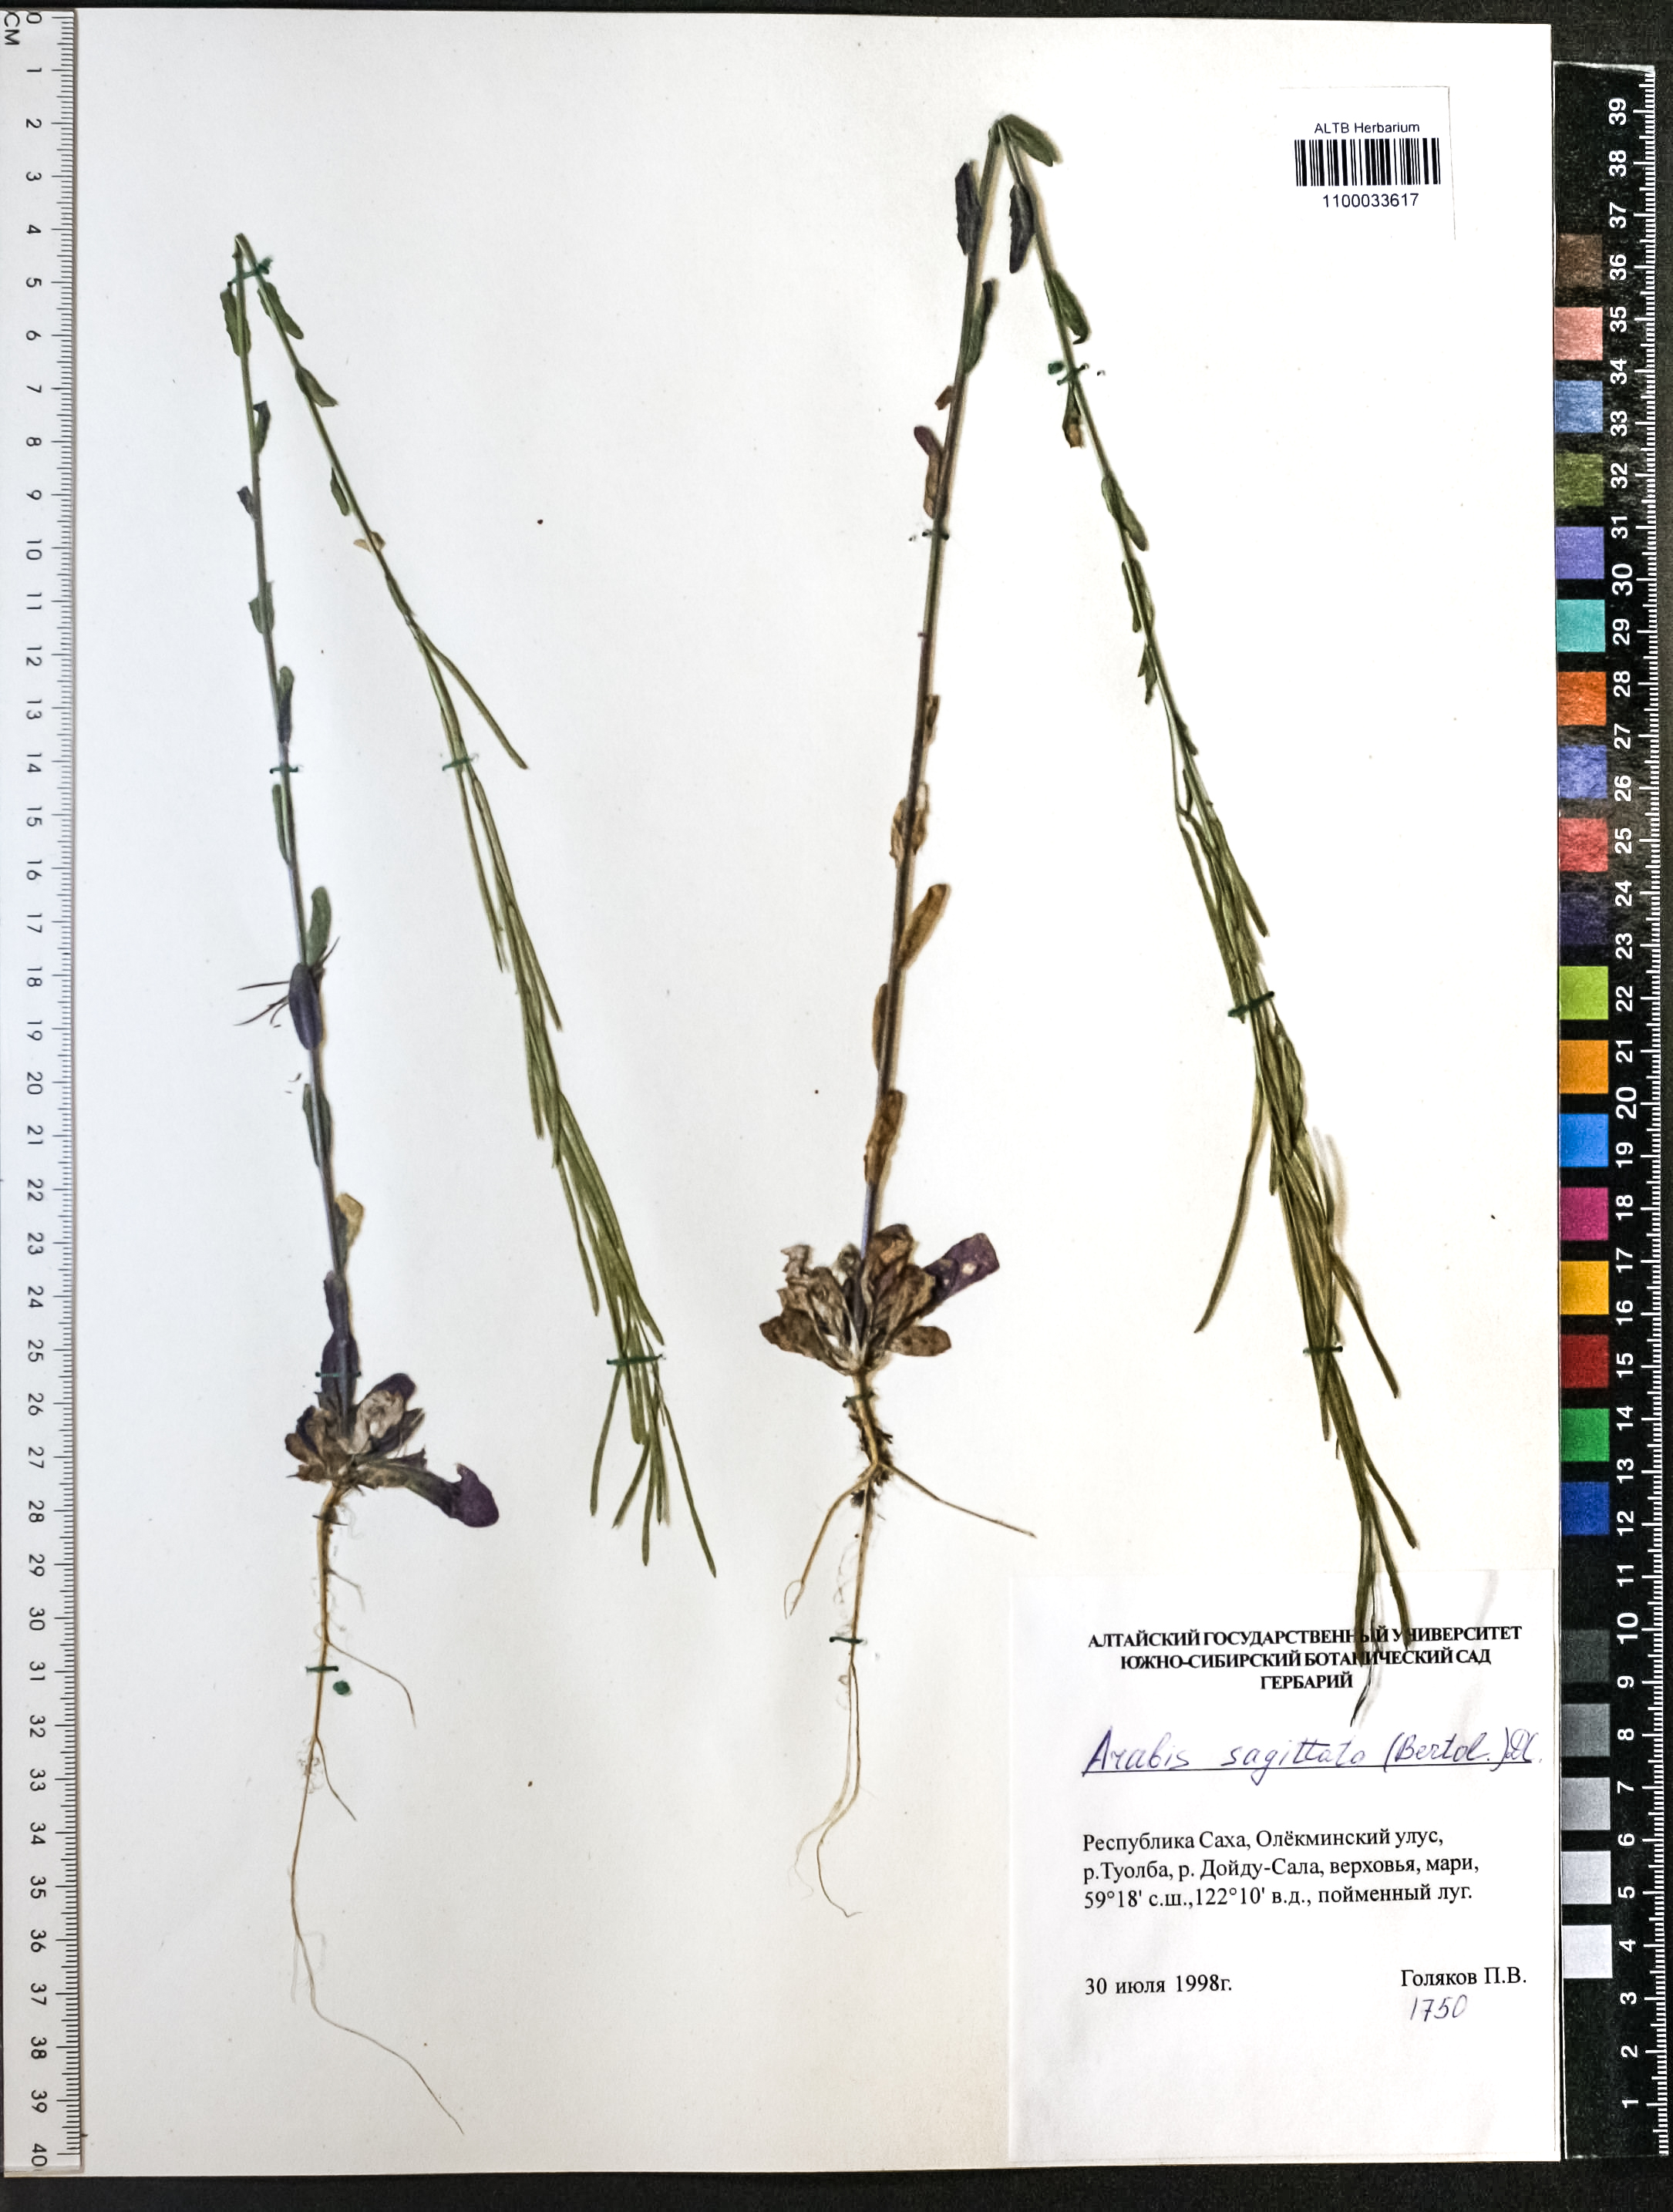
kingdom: Plantae
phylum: Tracheophyta
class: Magnoliopsida
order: Brassicales
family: Brassicaceae
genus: Arabis
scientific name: Arabis sagittata
